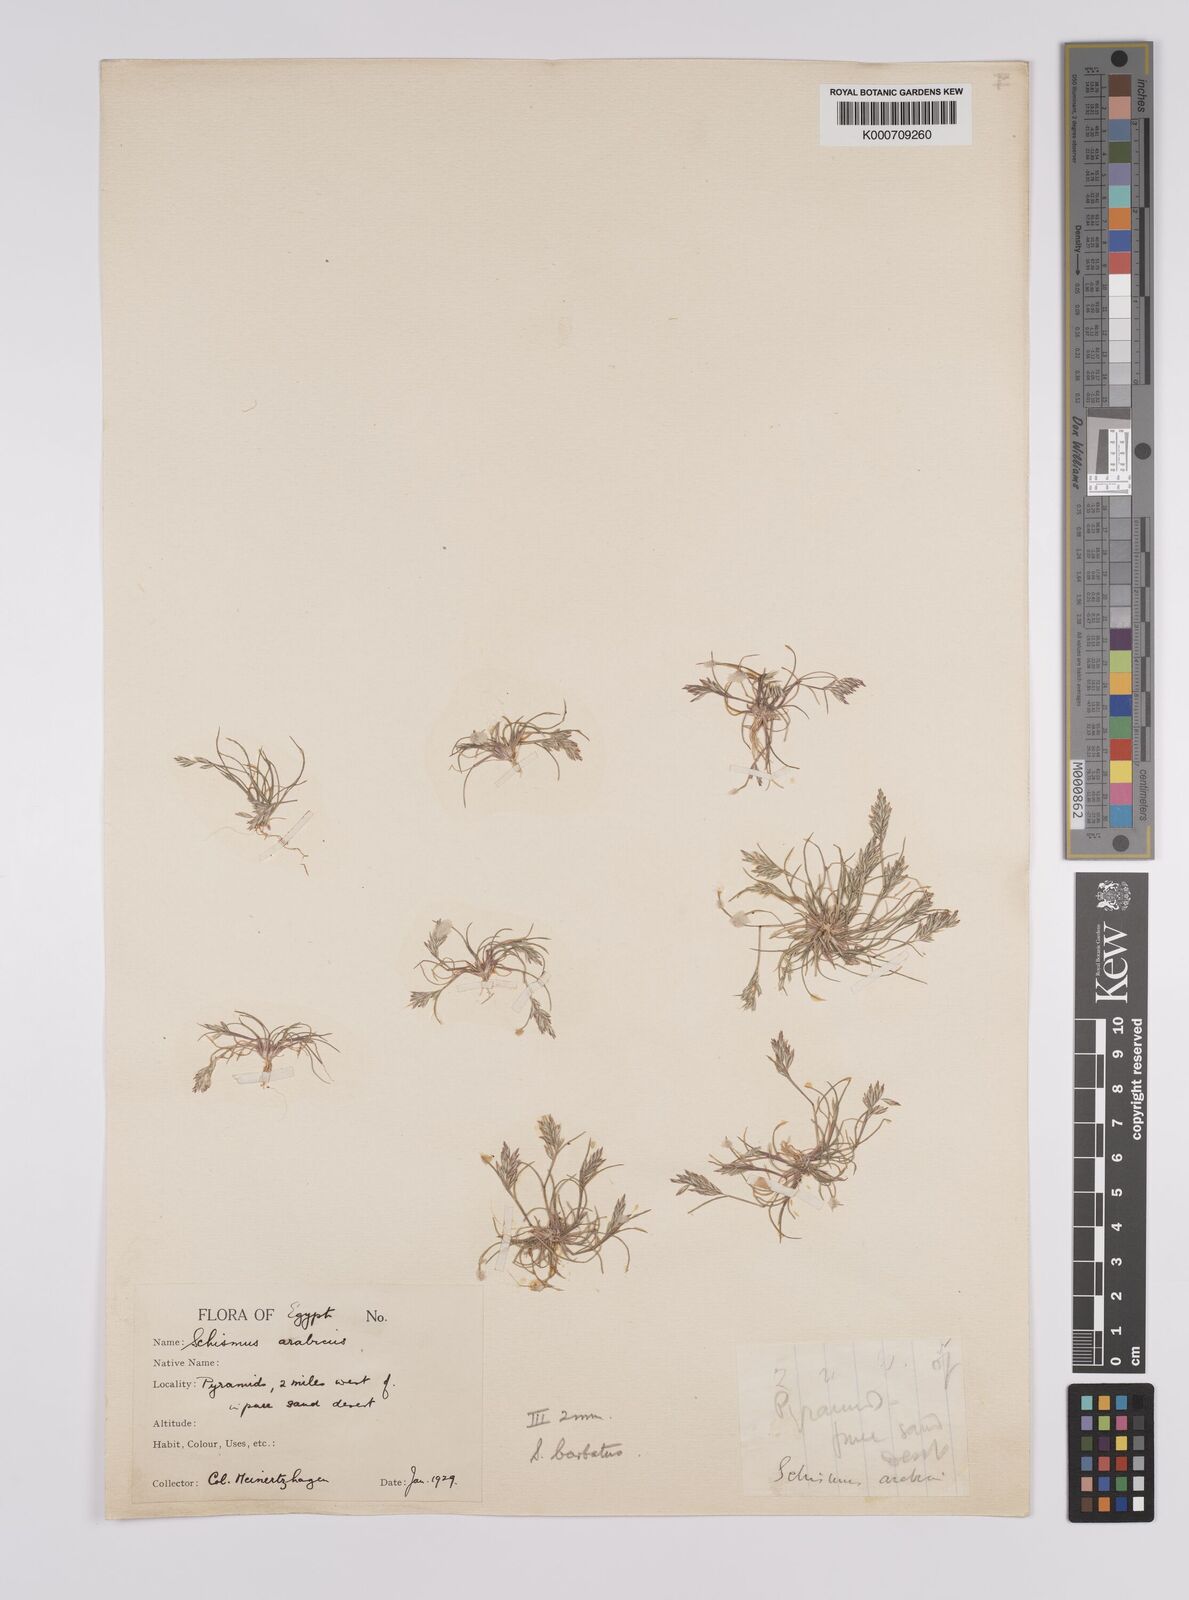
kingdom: Plantae
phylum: Tracheophyta
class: Liliopsida
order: Poales
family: Poaceae
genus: Schismus
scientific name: Schismus barbatus
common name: Kelch-grass
